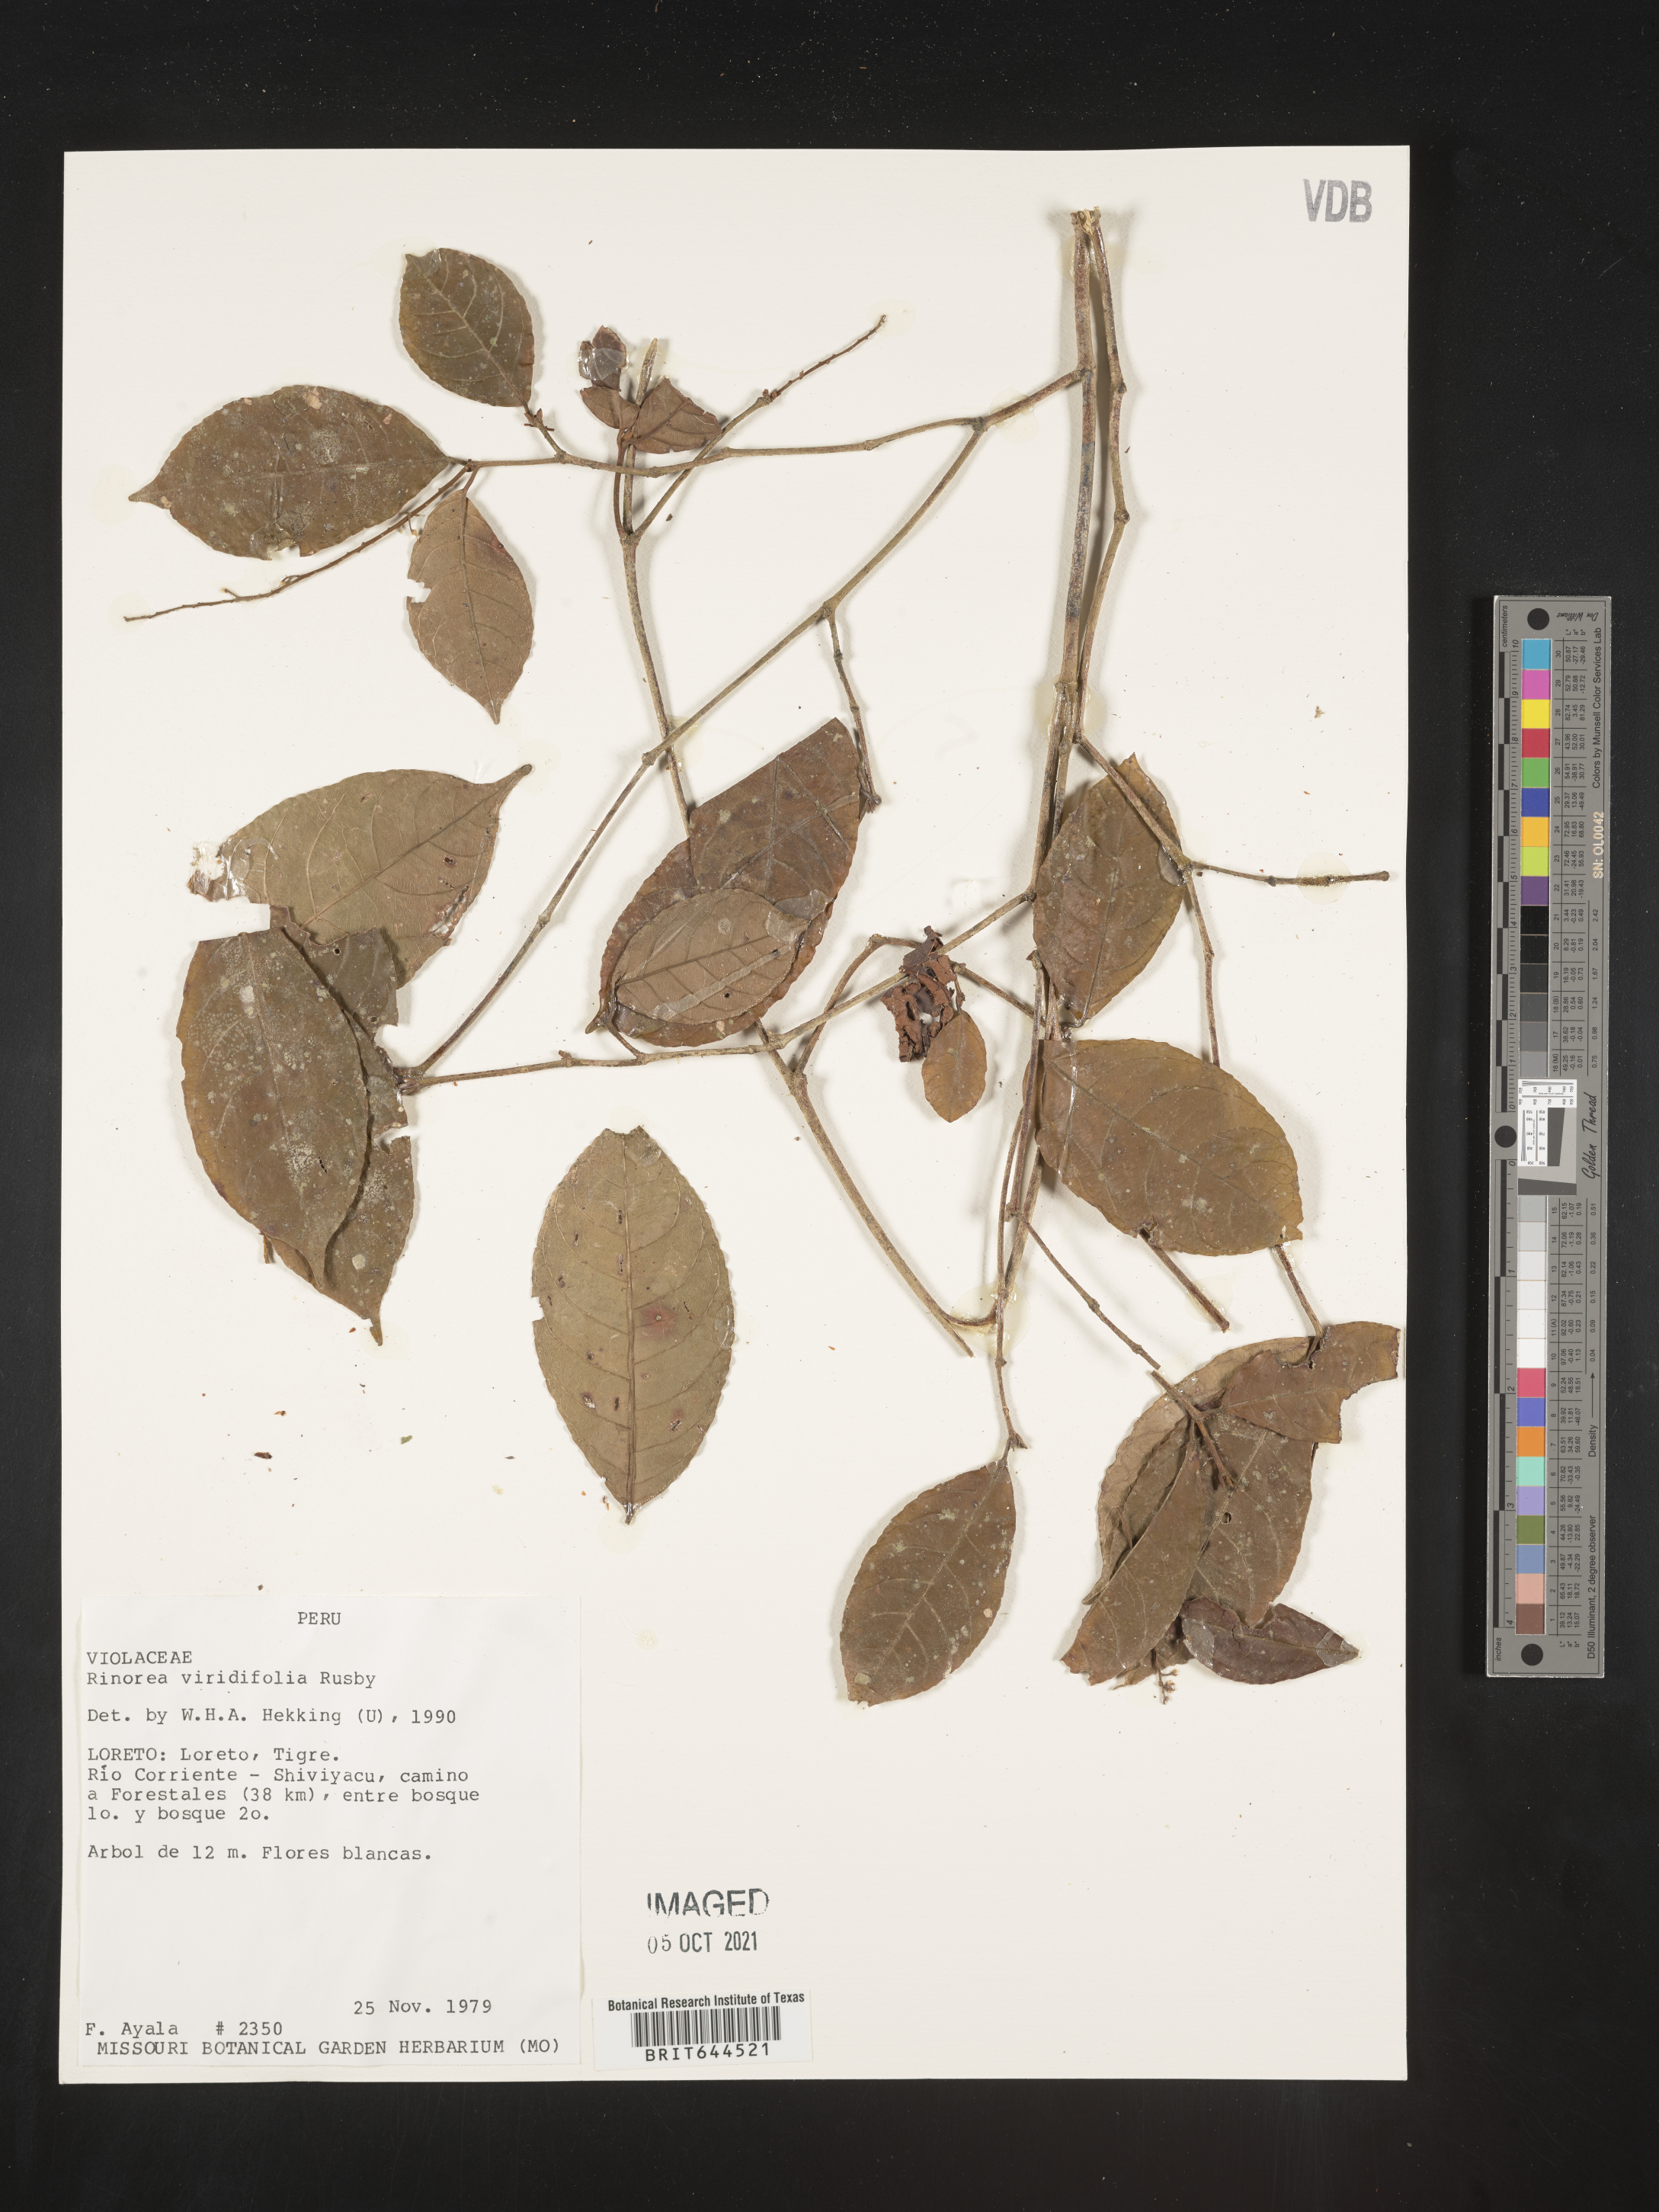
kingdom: Plantae
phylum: Tracheophyta
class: Magnoliopsida
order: Malpighiales
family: Violaceae
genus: Rinorea
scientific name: Rinorea
